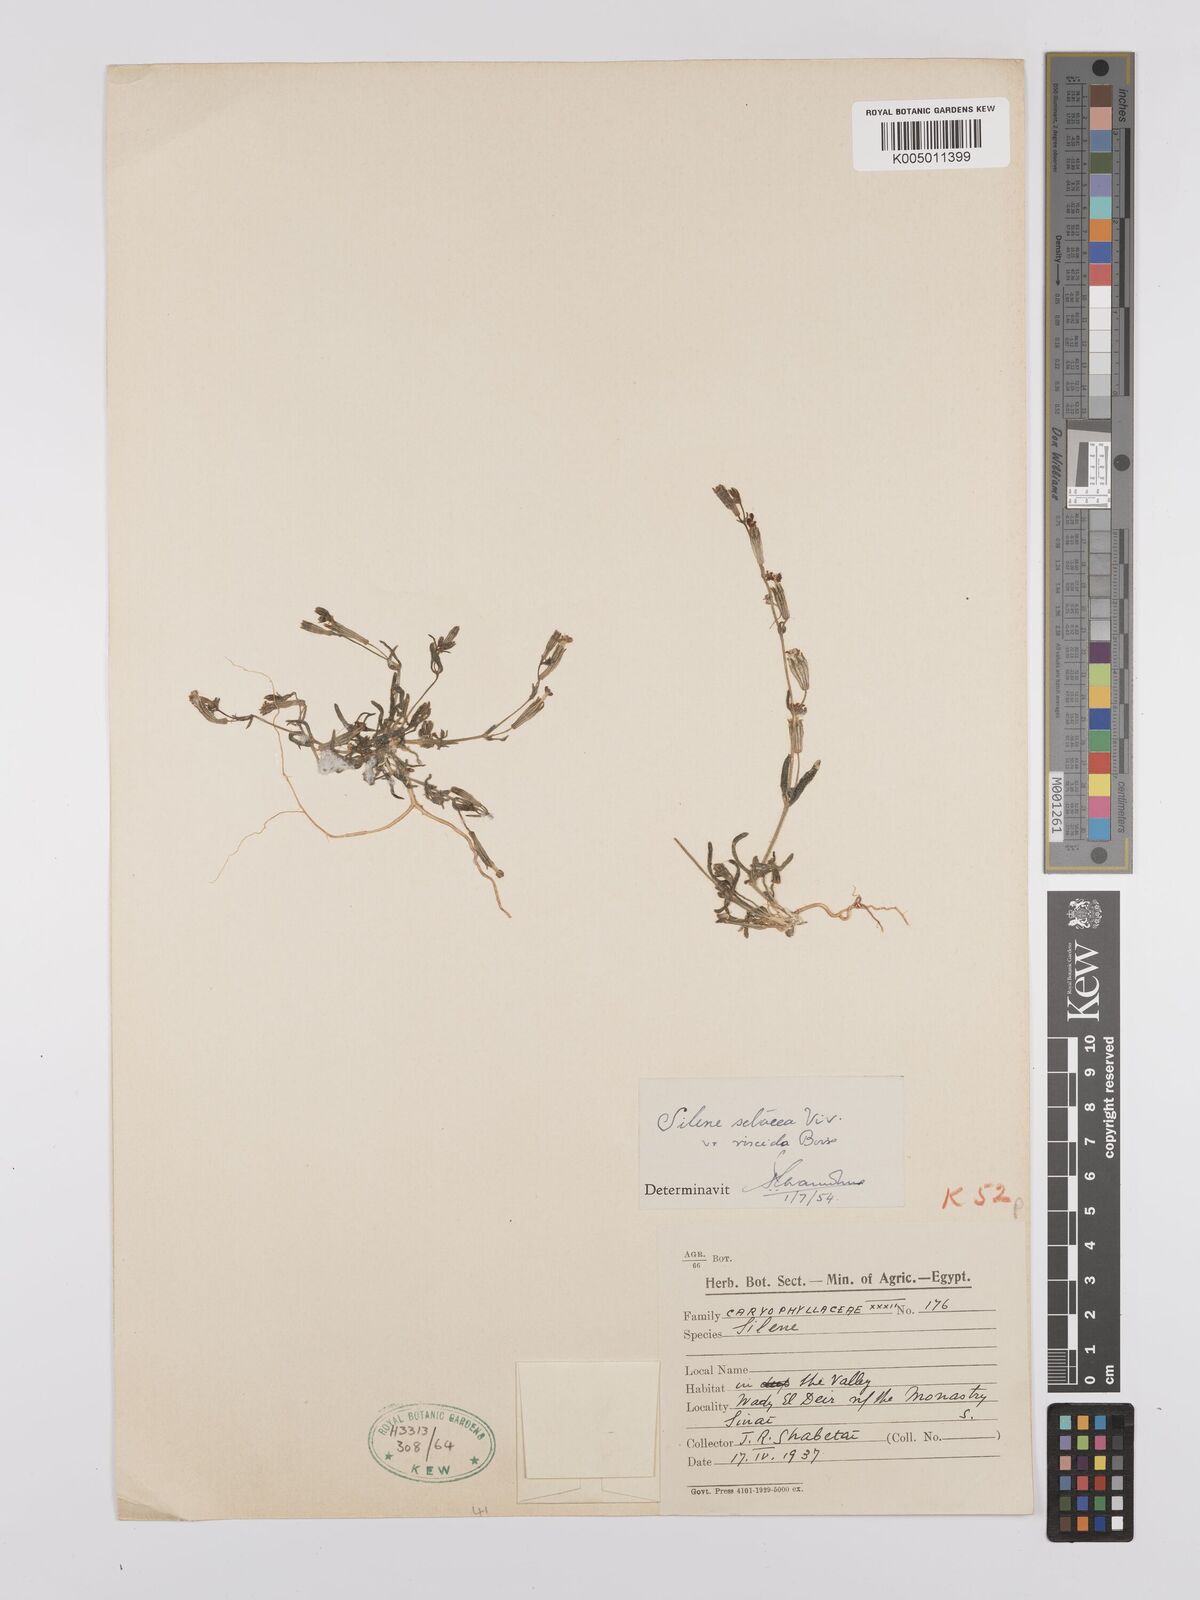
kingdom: Plantae
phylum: Tracheophyta
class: Magnoliopsida
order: Caryophyllales
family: Caryophyllaceae
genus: Silene
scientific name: Silene vivianii
